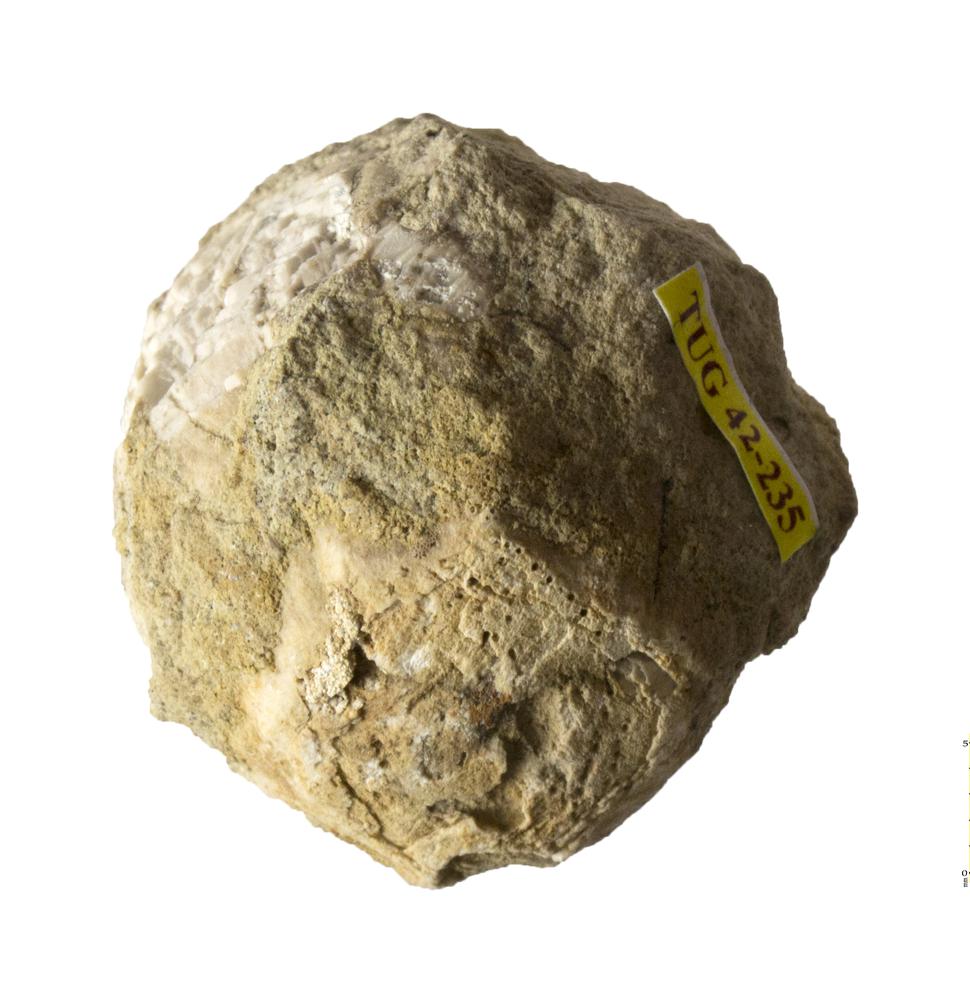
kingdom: Animalia
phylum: Echinodermata
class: Crinoidea
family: Hemicosmitidae
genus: Hemicosmites
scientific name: Hemicosmites pyriformis
